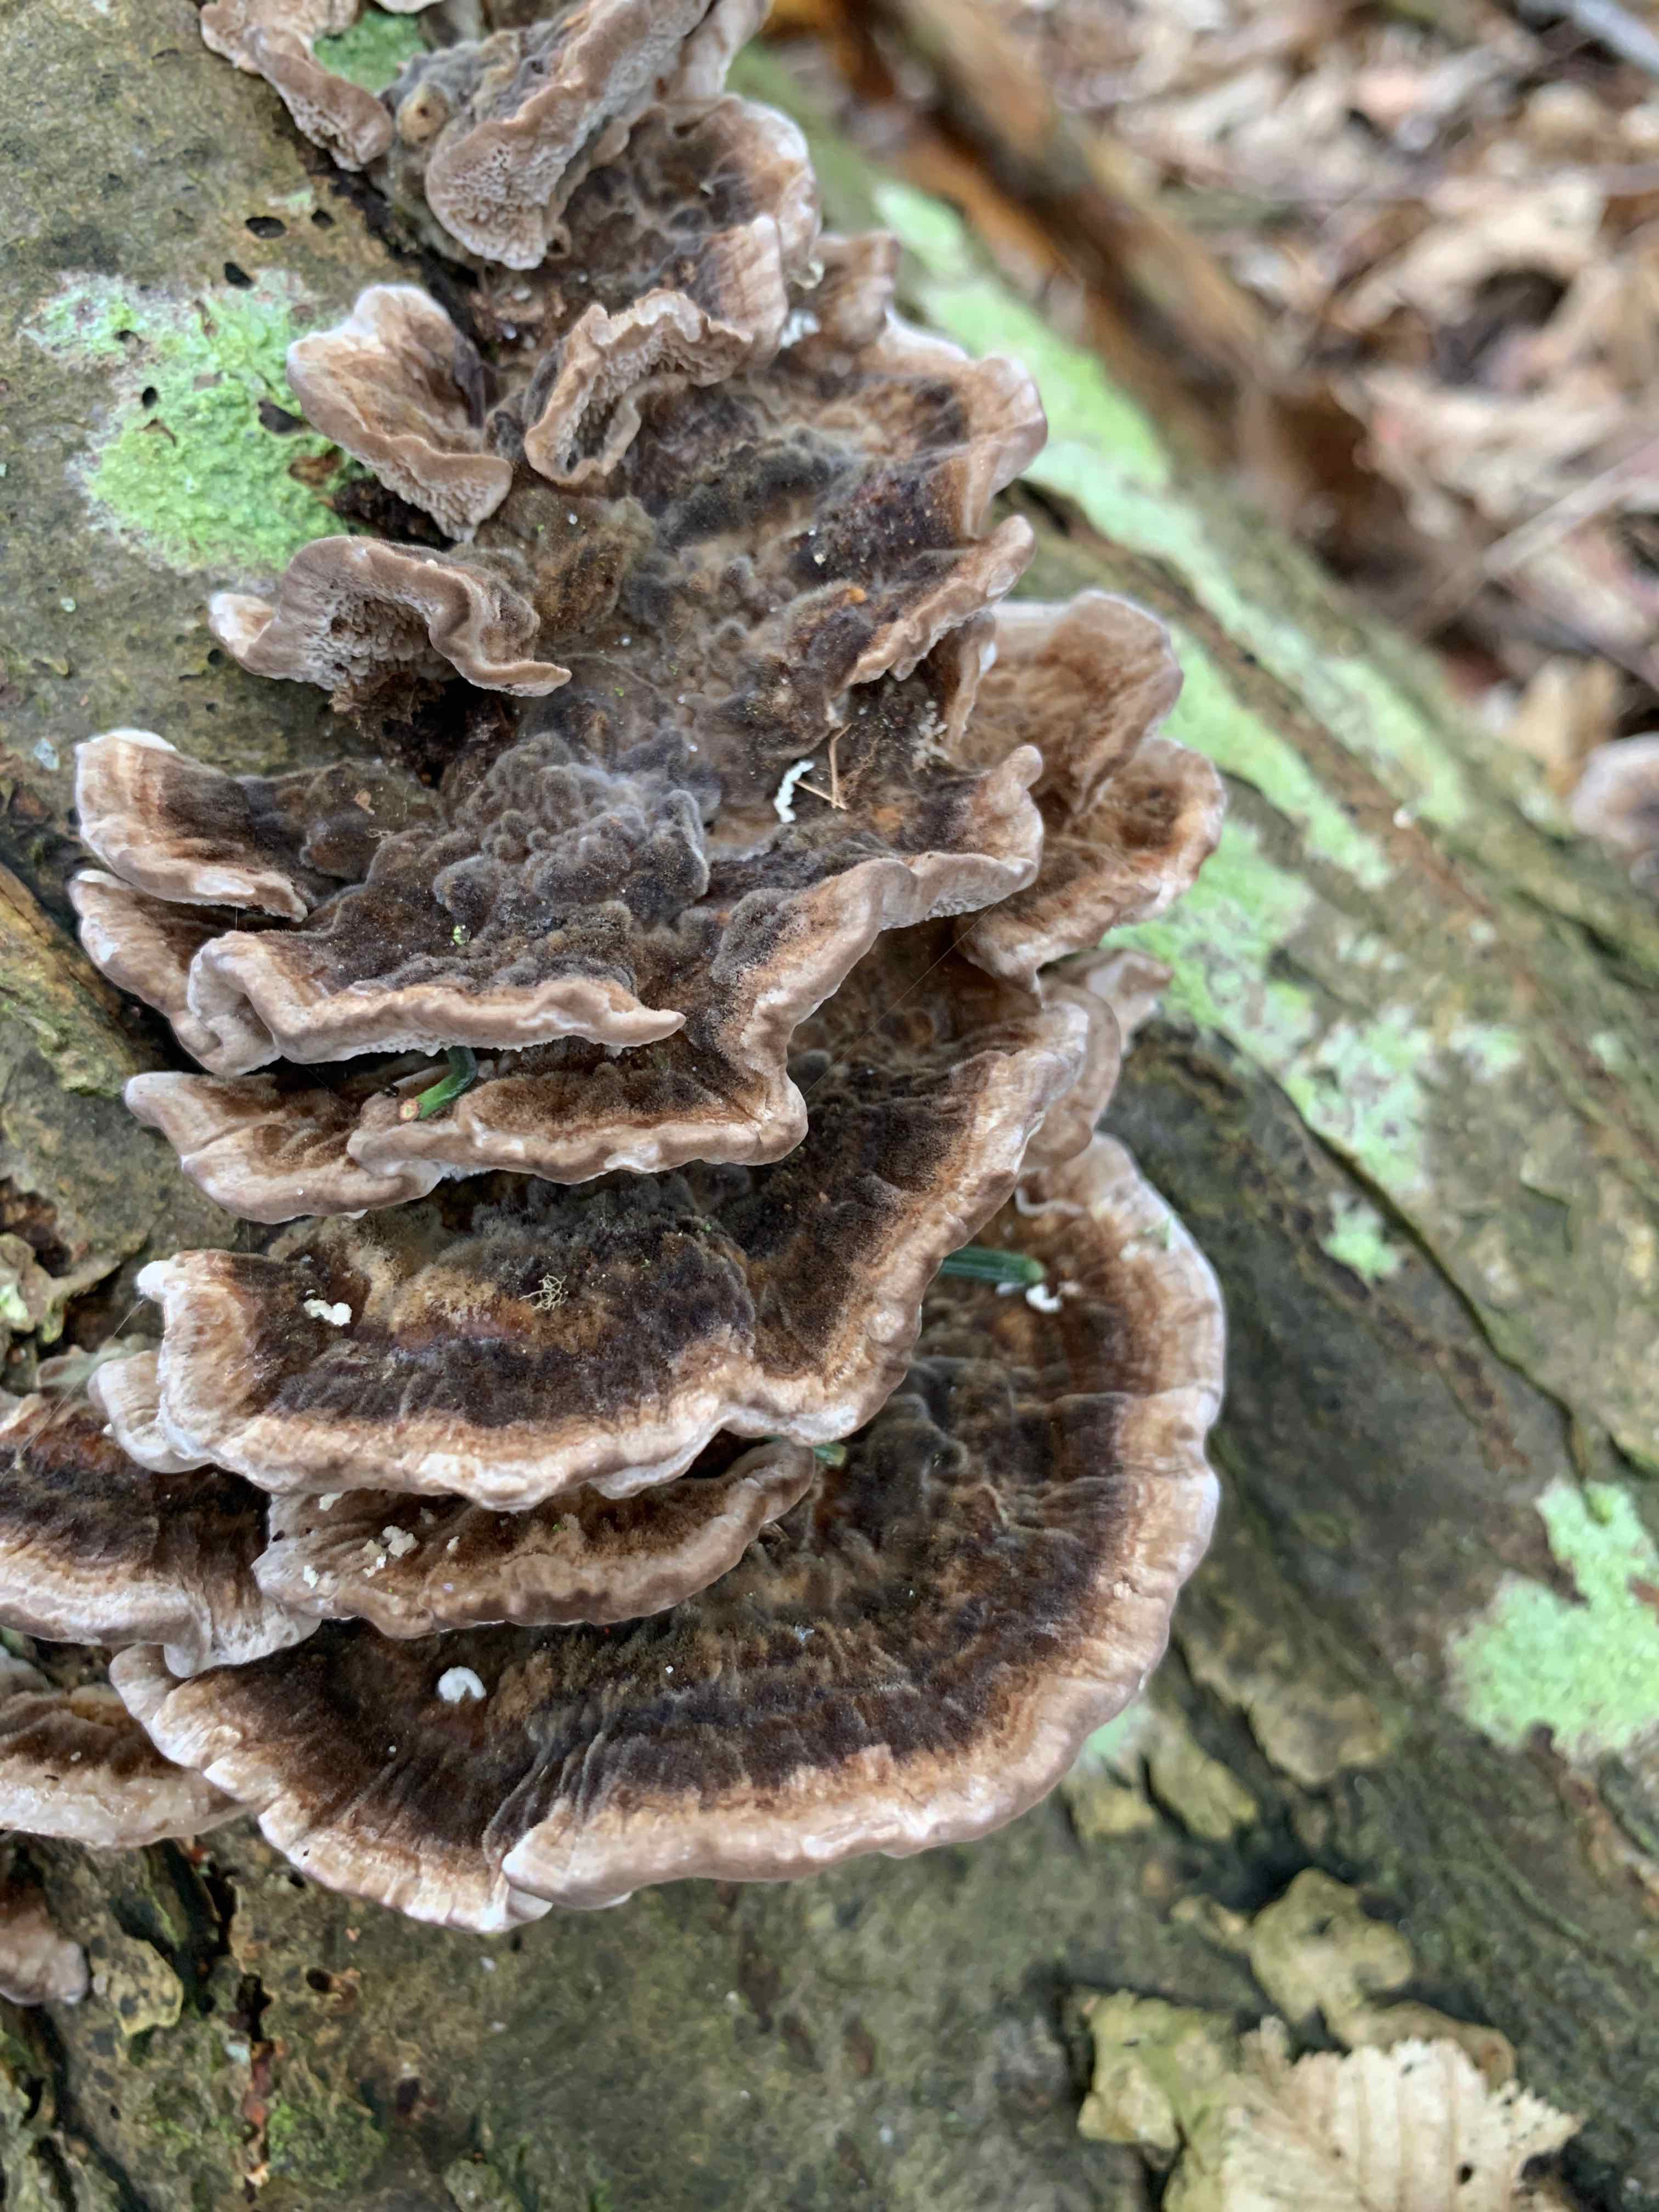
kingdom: Fungi
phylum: Basidiomycota
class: Agaricomycetes
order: Polyporales
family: Polyporaceae
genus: Trametes
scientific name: Trametes versicolor
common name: broget læderporesvamp
